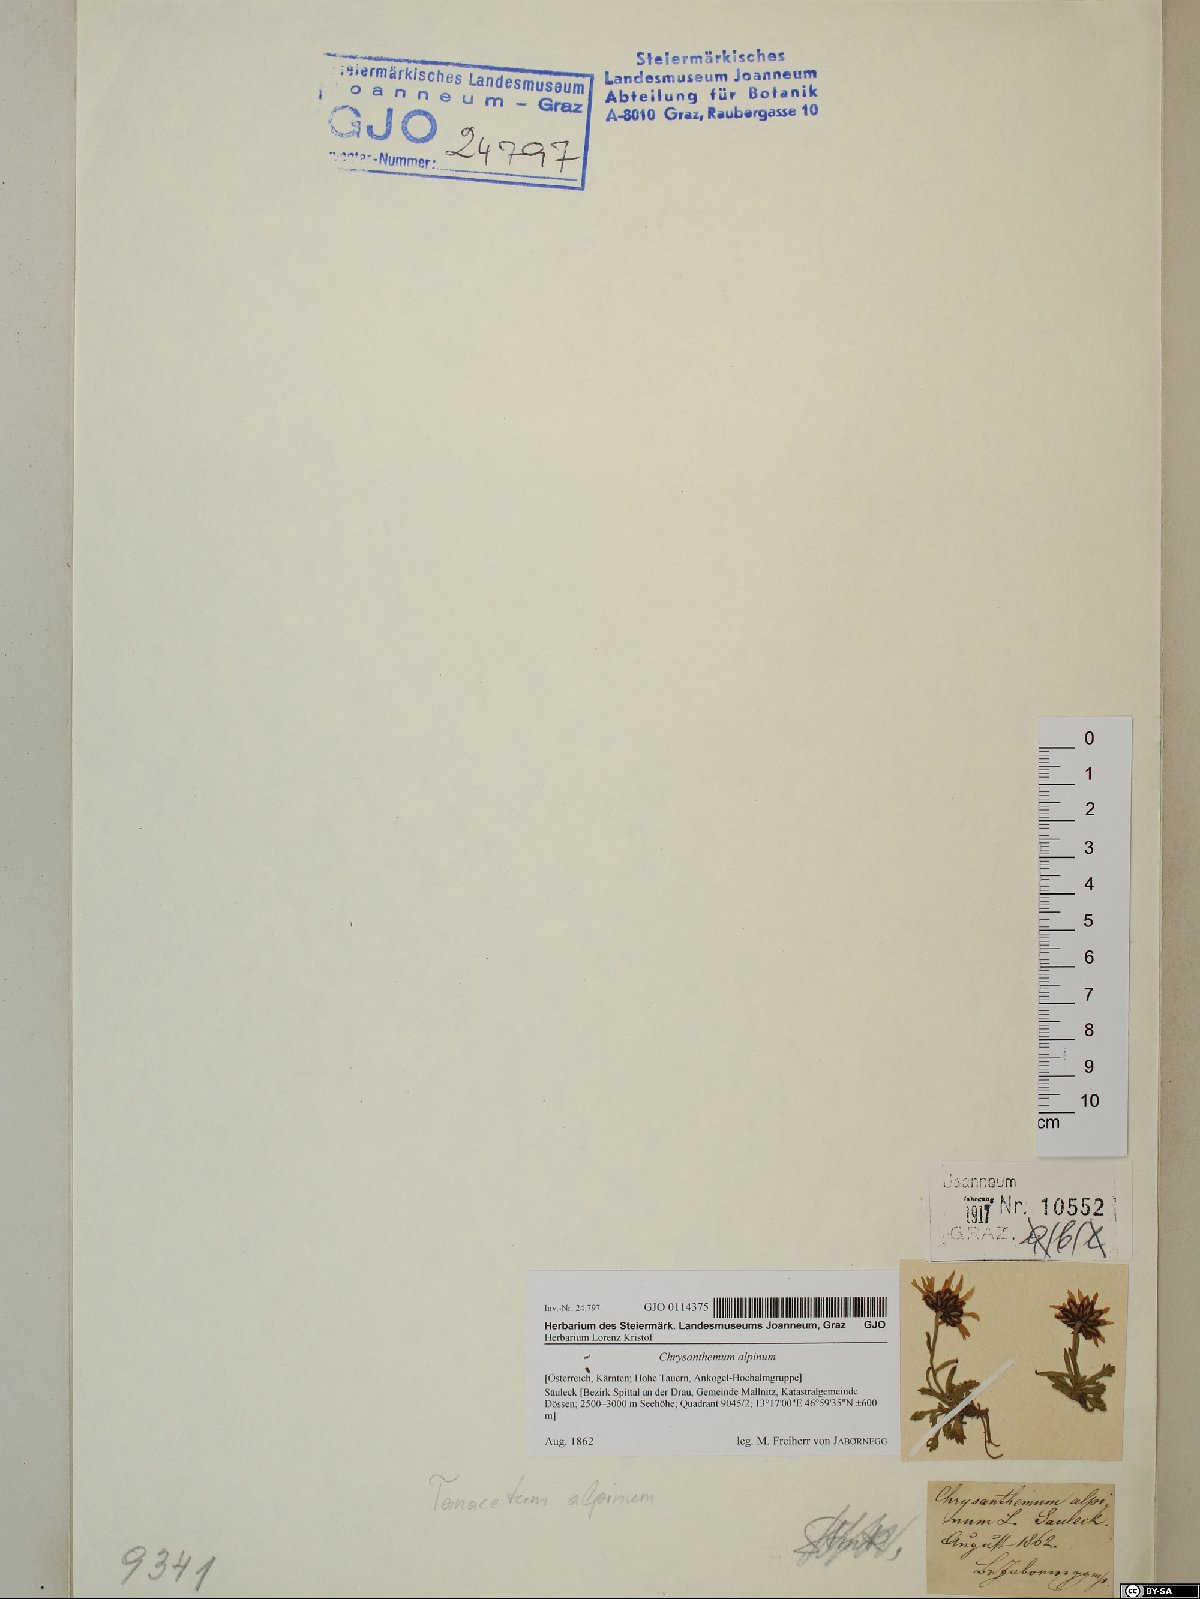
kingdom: Plantae
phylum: Tracheophyta
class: Magnoliopsida
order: Asterales
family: Asteraceae
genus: Leucanthemopsis
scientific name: Leucanthemopsis alpina
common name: Alpine moon daisy
